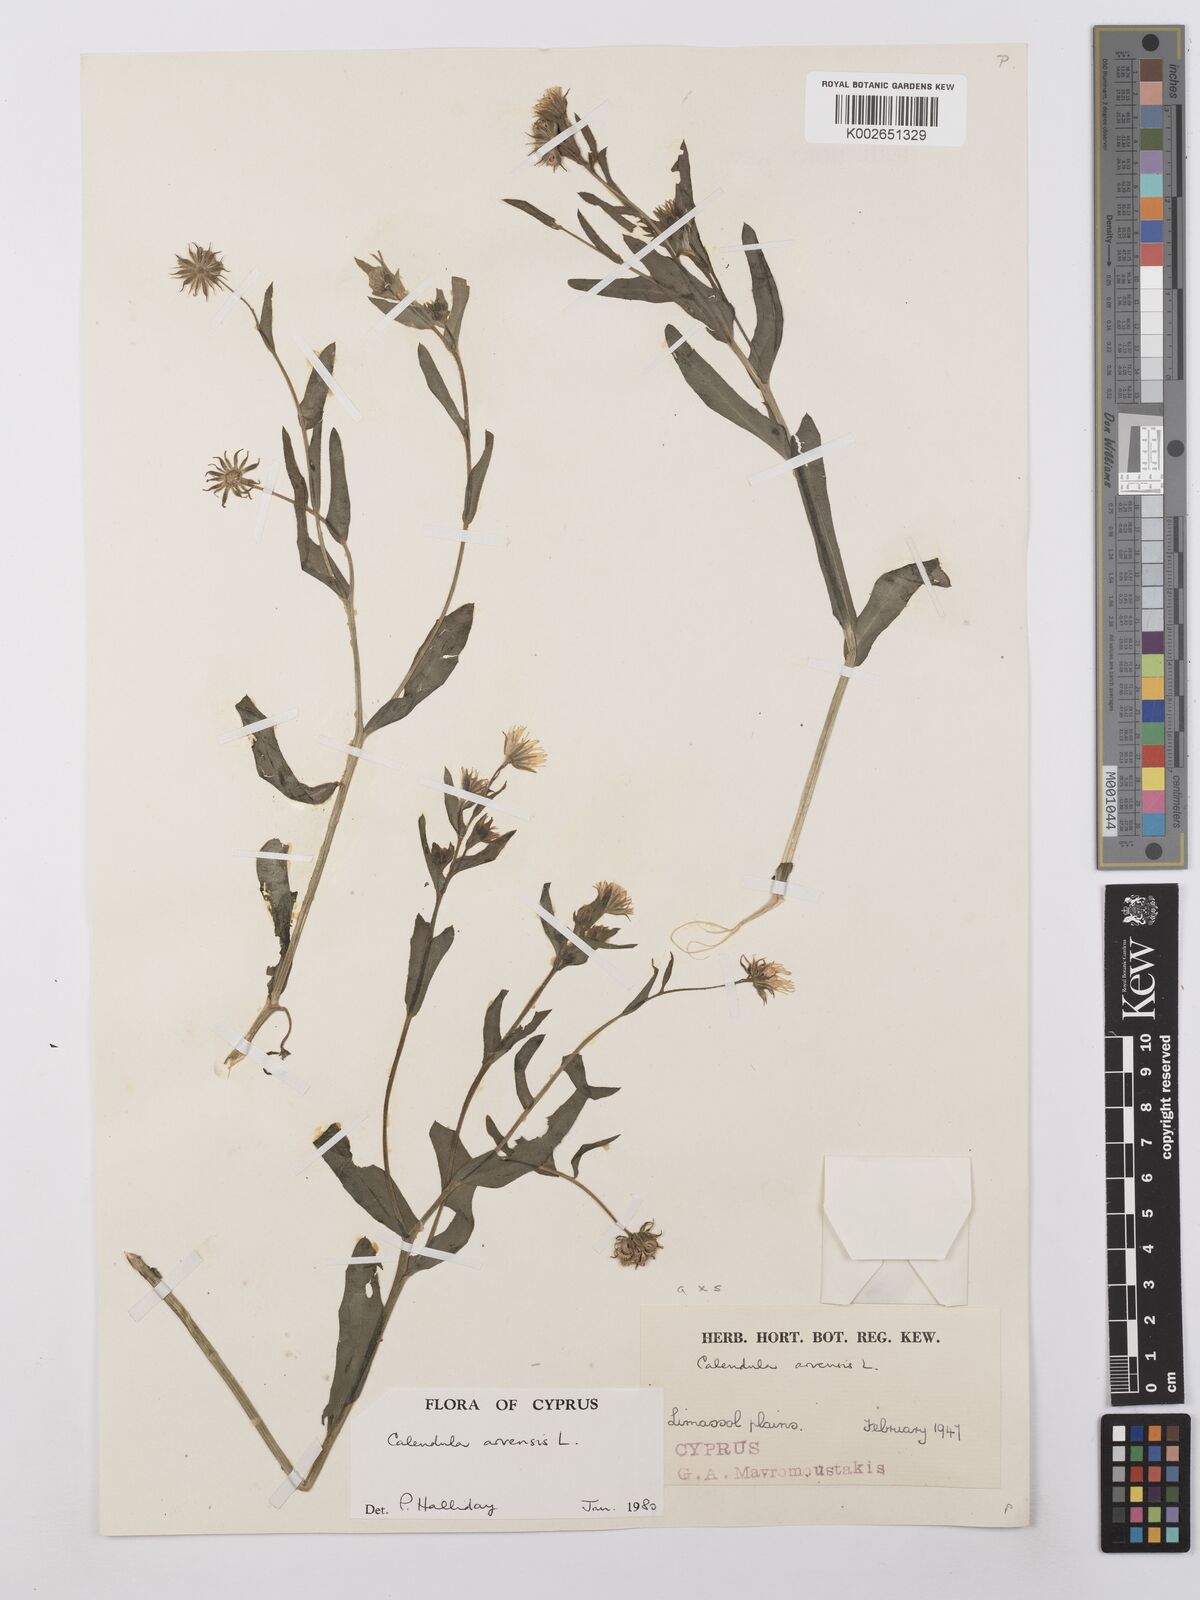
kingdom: Plantae
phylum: Tracheophyta
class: Magnoliopsida
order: Asterales
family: Asteraceae
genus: Calendula
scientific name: Calendula arvensis
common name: Field marigold
